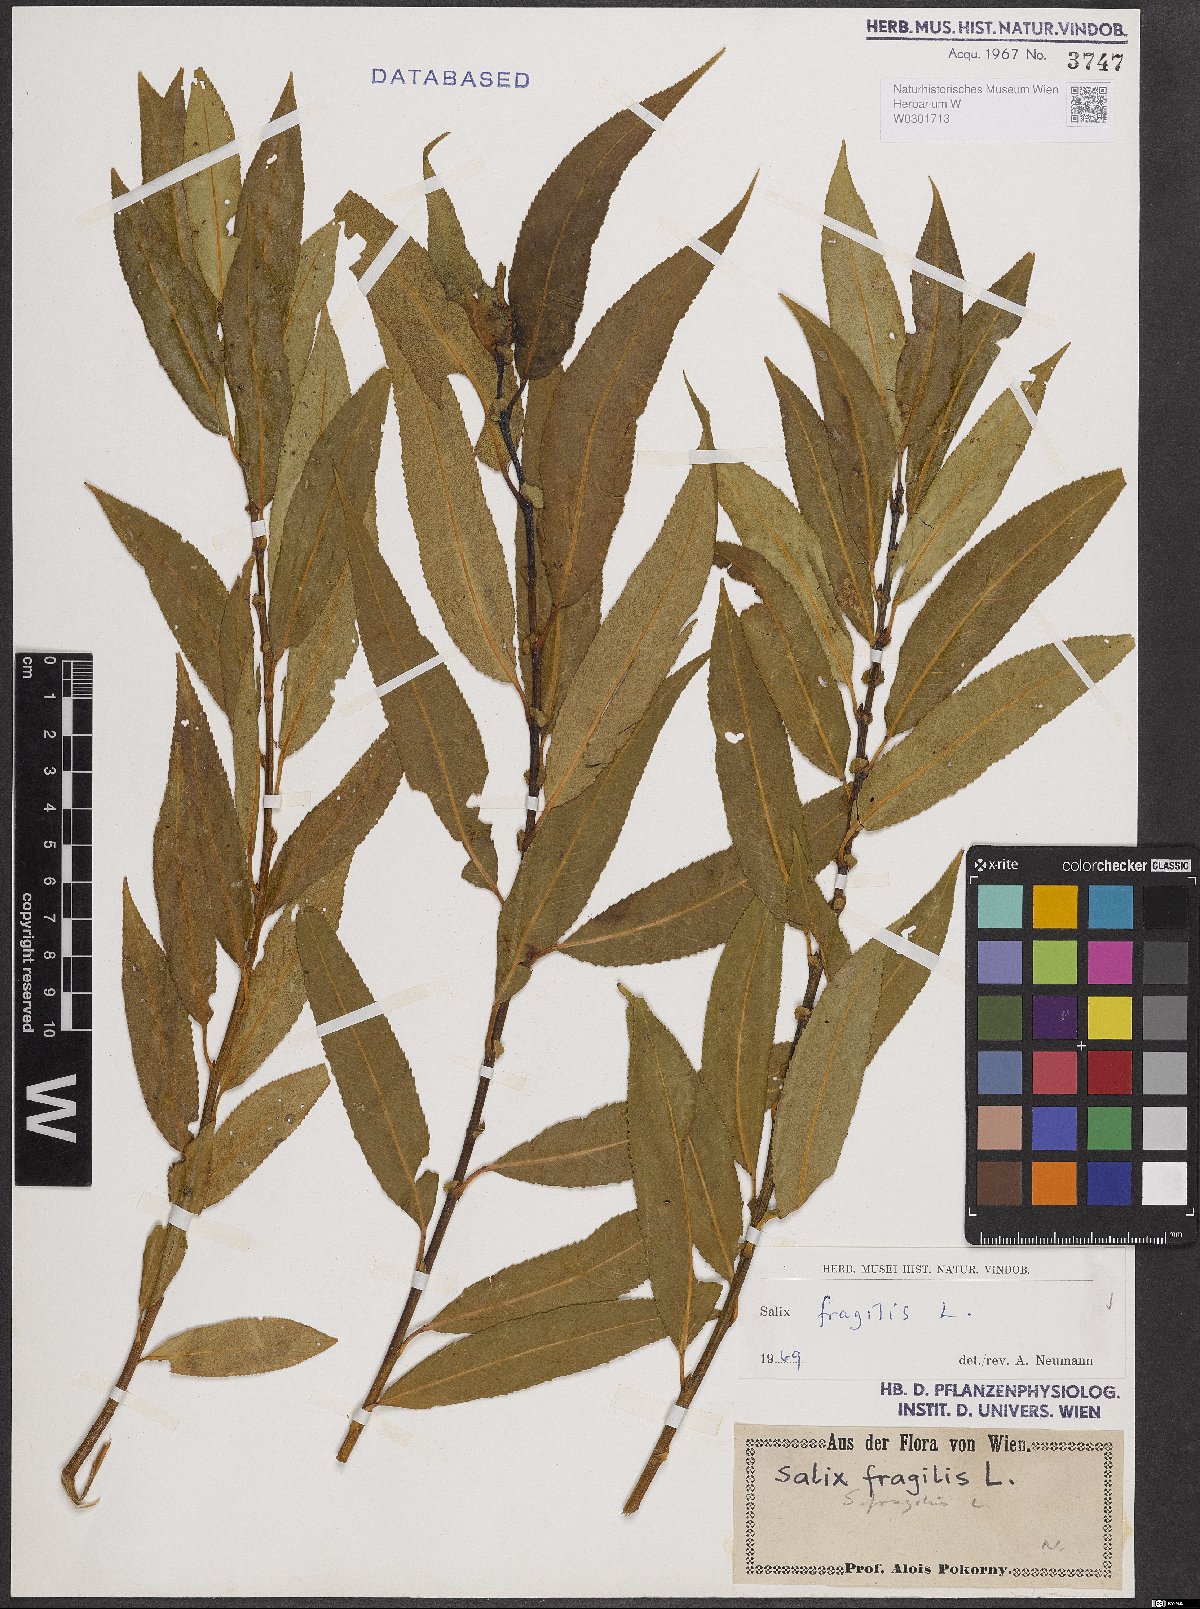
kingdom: Plantae
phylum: Tracheophyta
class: Magnoliopsida
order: Malpighiales
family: Salicaceae
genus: Salix
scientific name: Salix fragilis
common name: Crack willow
